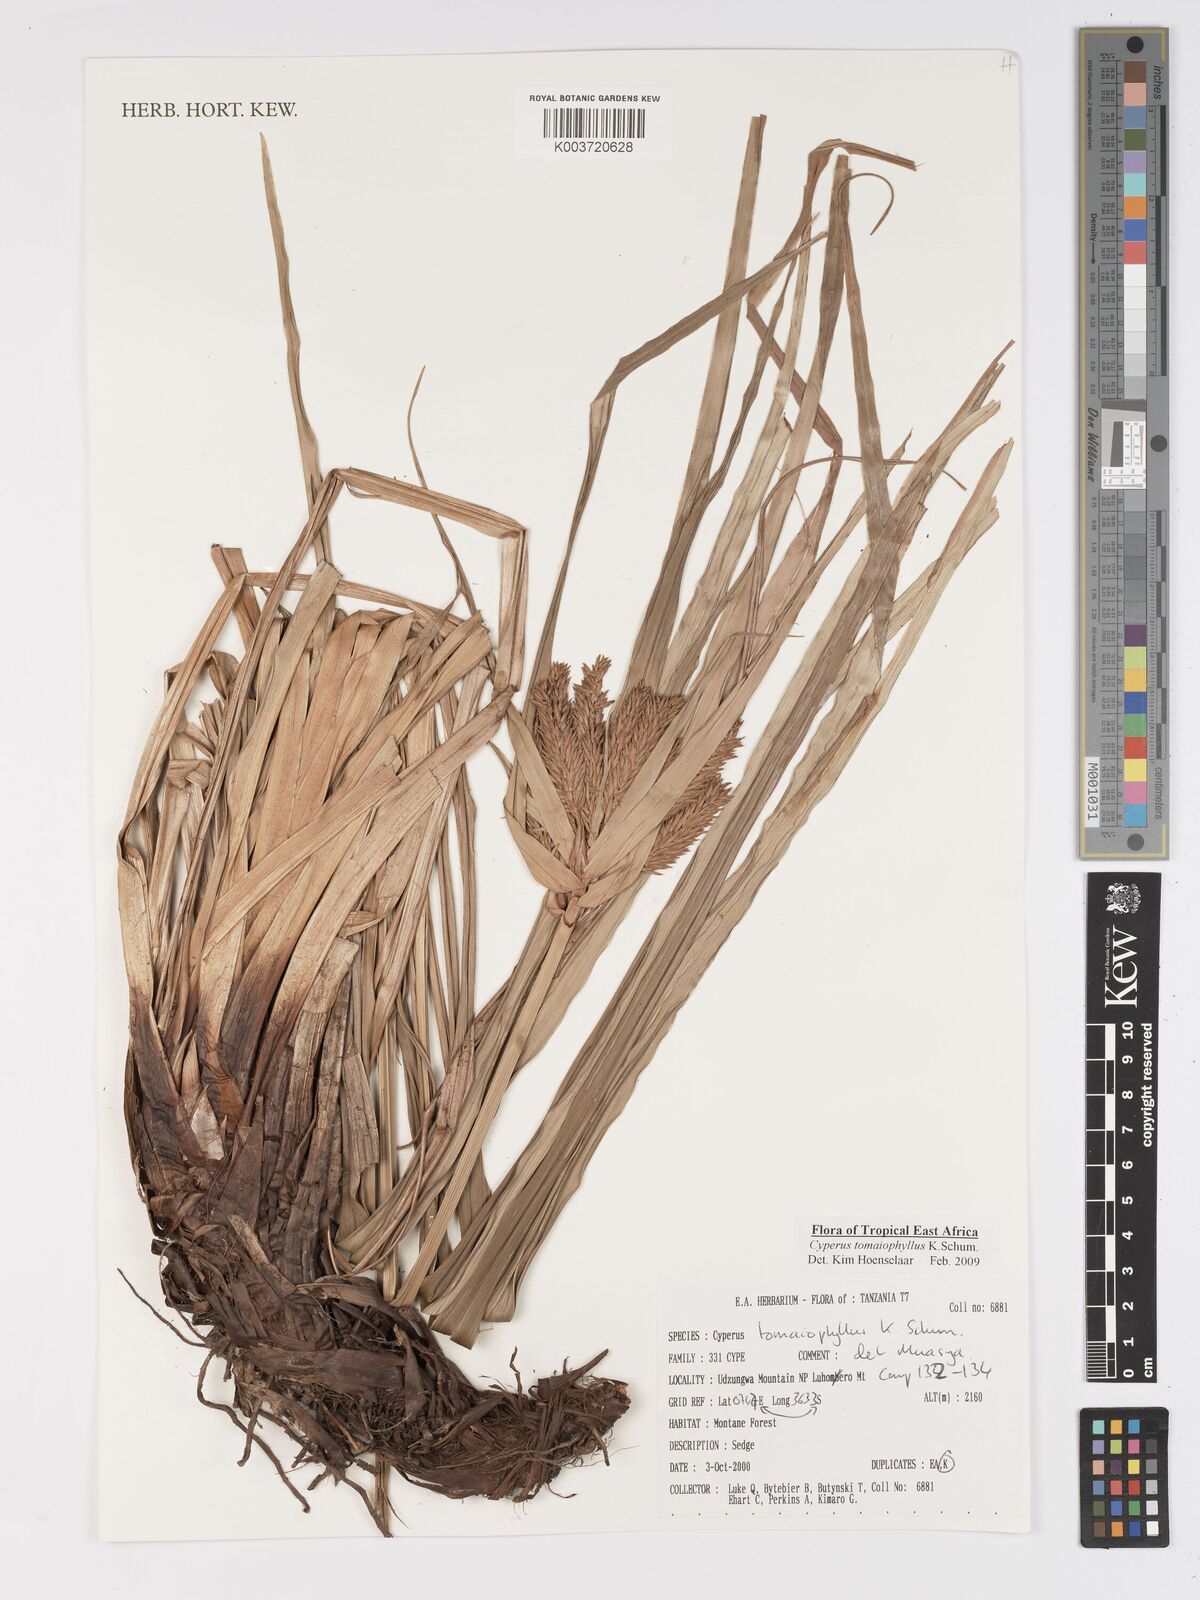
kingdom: Plantae
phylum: Tracheophyta
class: Liliopsida
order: Poales
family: Cyperaceae
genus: Cyperus
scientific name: Cyperus tomaiophyllus
